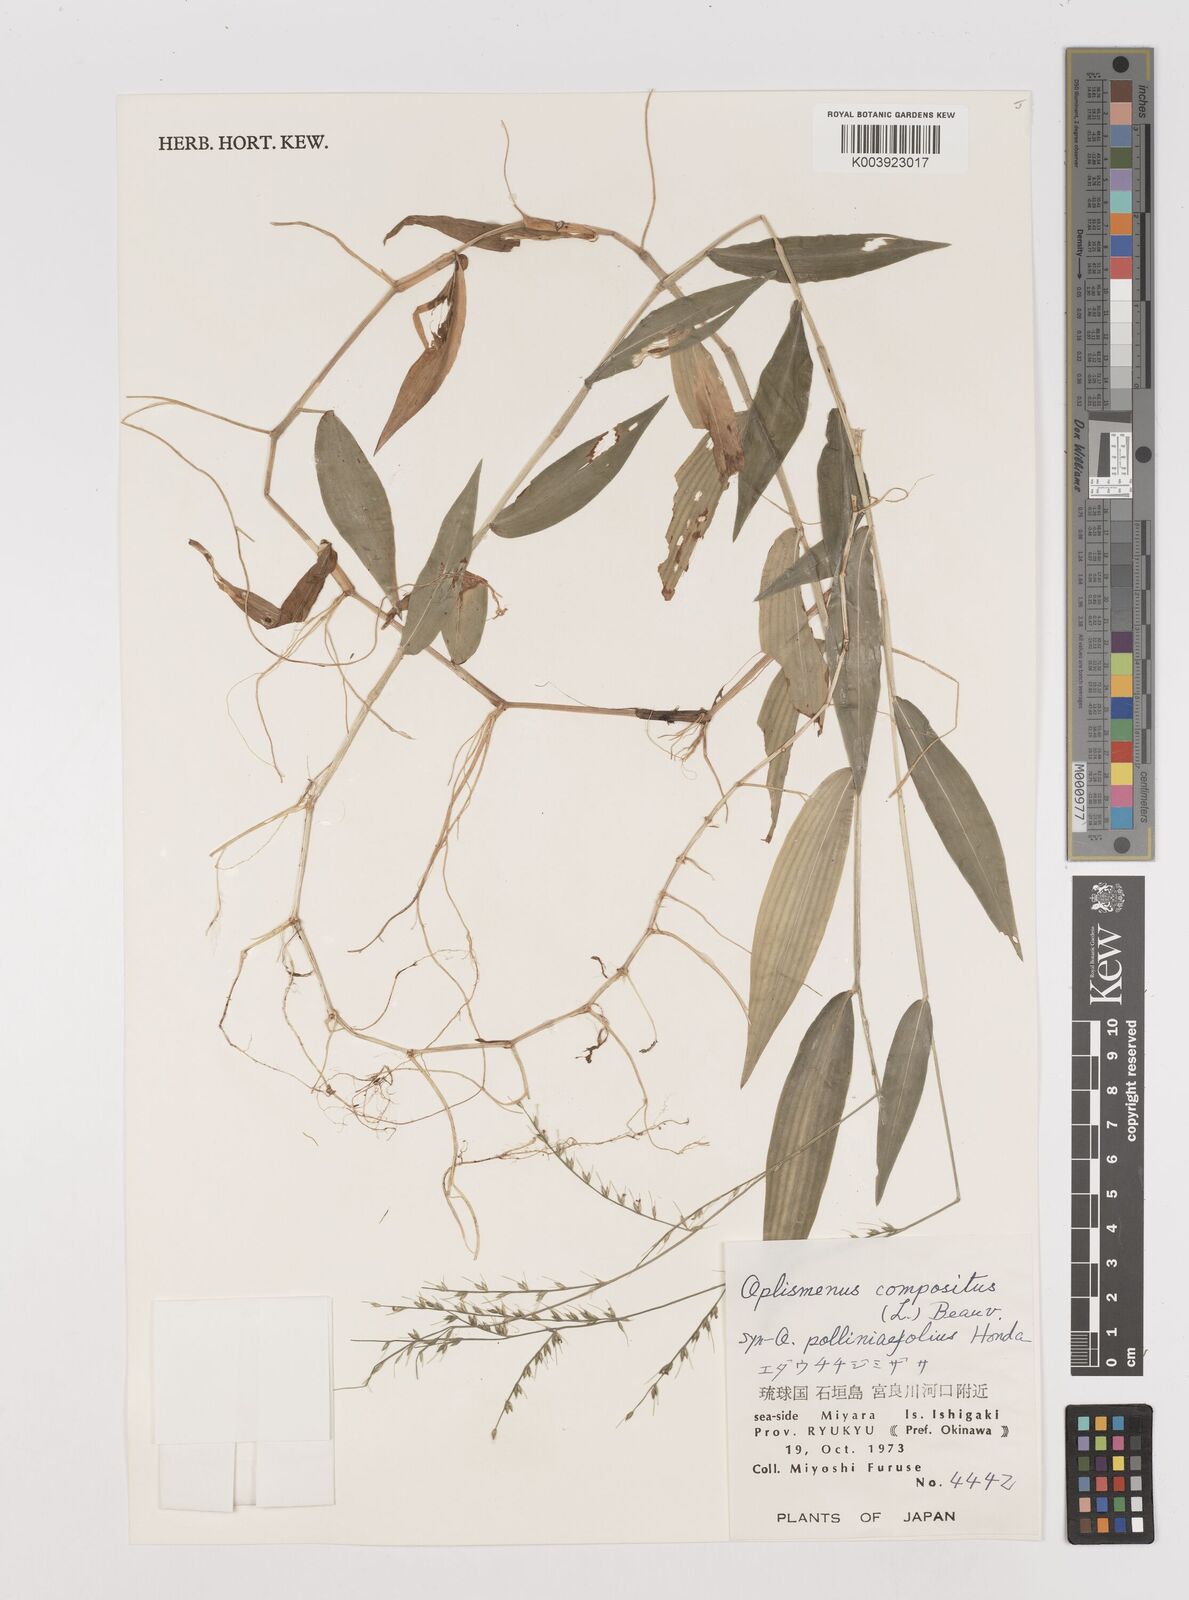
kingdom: Plantae
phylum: Tracheophyta
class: Liliopsida
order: Poales
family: Poaceae
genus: Oplismenus
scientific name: Oplismenus compositus
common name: Running mountain grass
